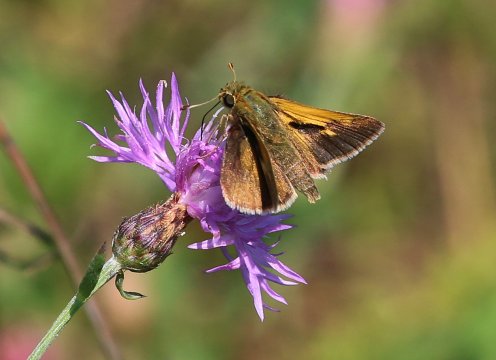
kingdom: Animalia
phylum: Arthropoda
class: Insecta
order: Lepidoptera
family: Hesperiidae
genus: Polites
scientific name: Polites themistocles
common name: Tawny-edged Skipper
